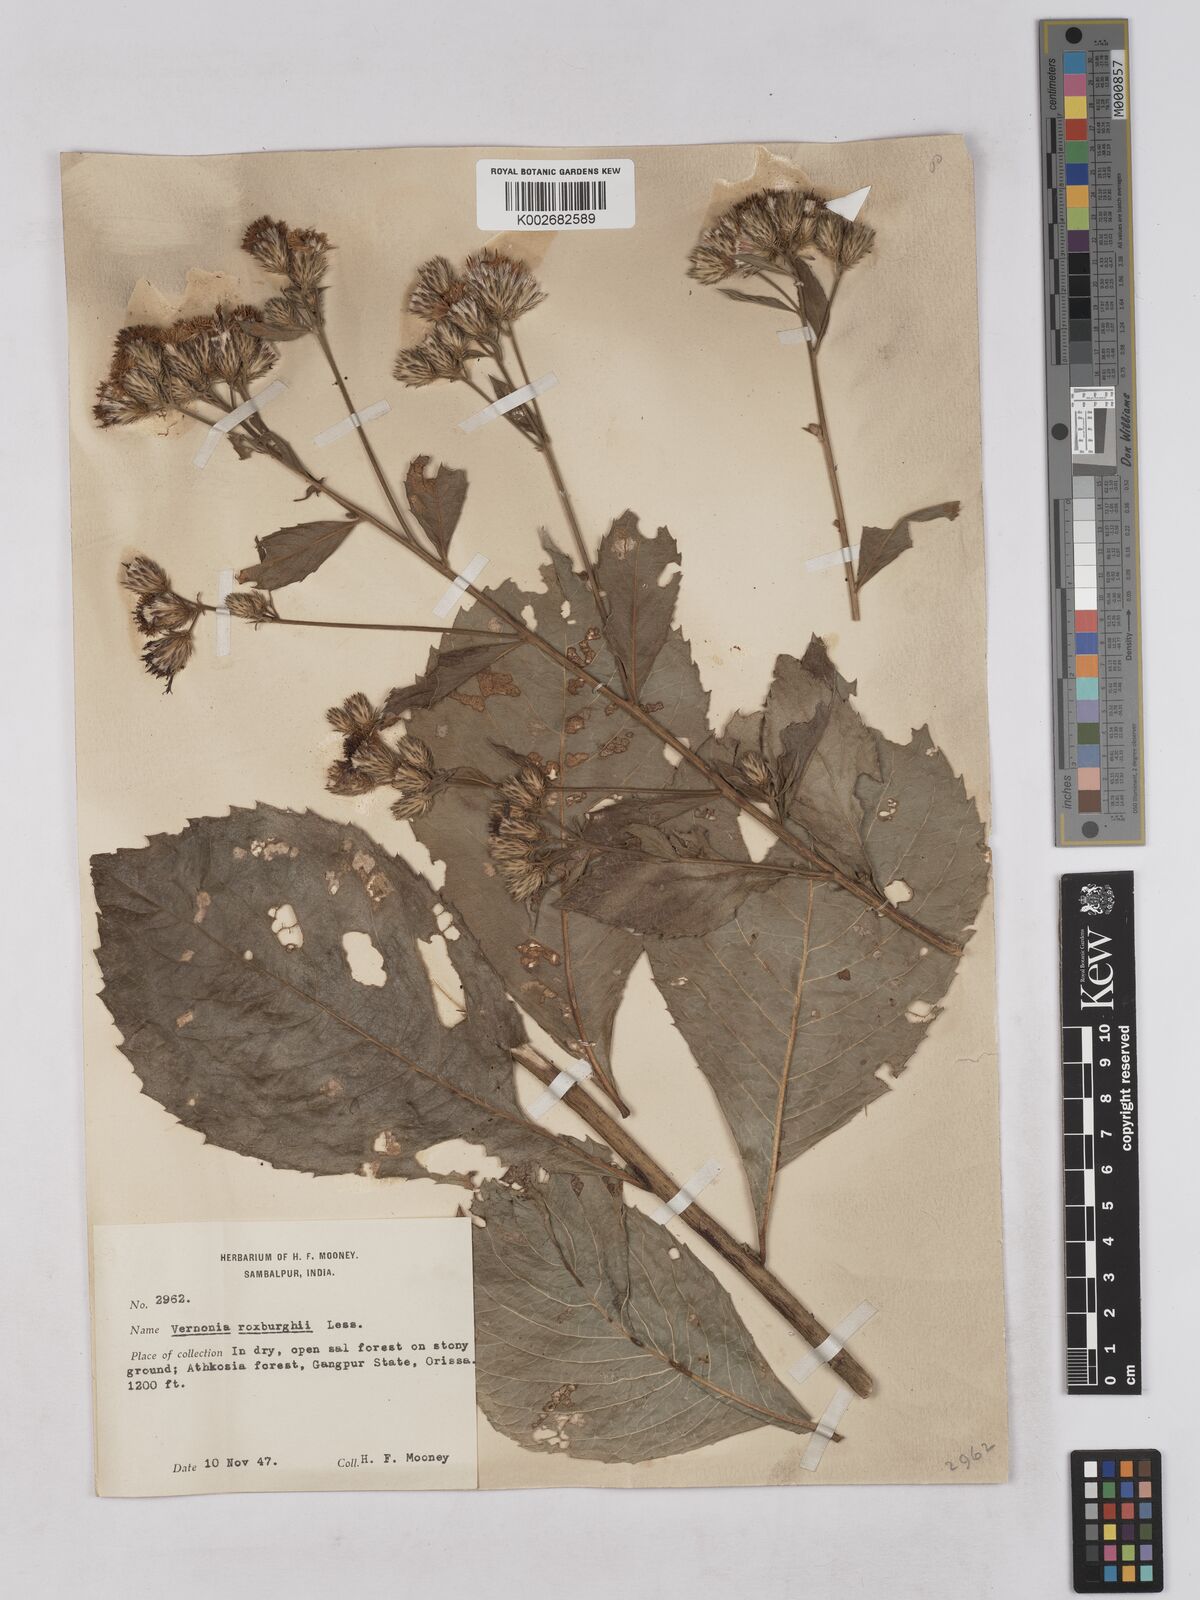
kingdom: Plantae
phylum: Tracheophyta
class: Magnoliopsida
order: Asterales
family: Asteraceae
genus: Acilepis
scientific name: Acilepis aspera
